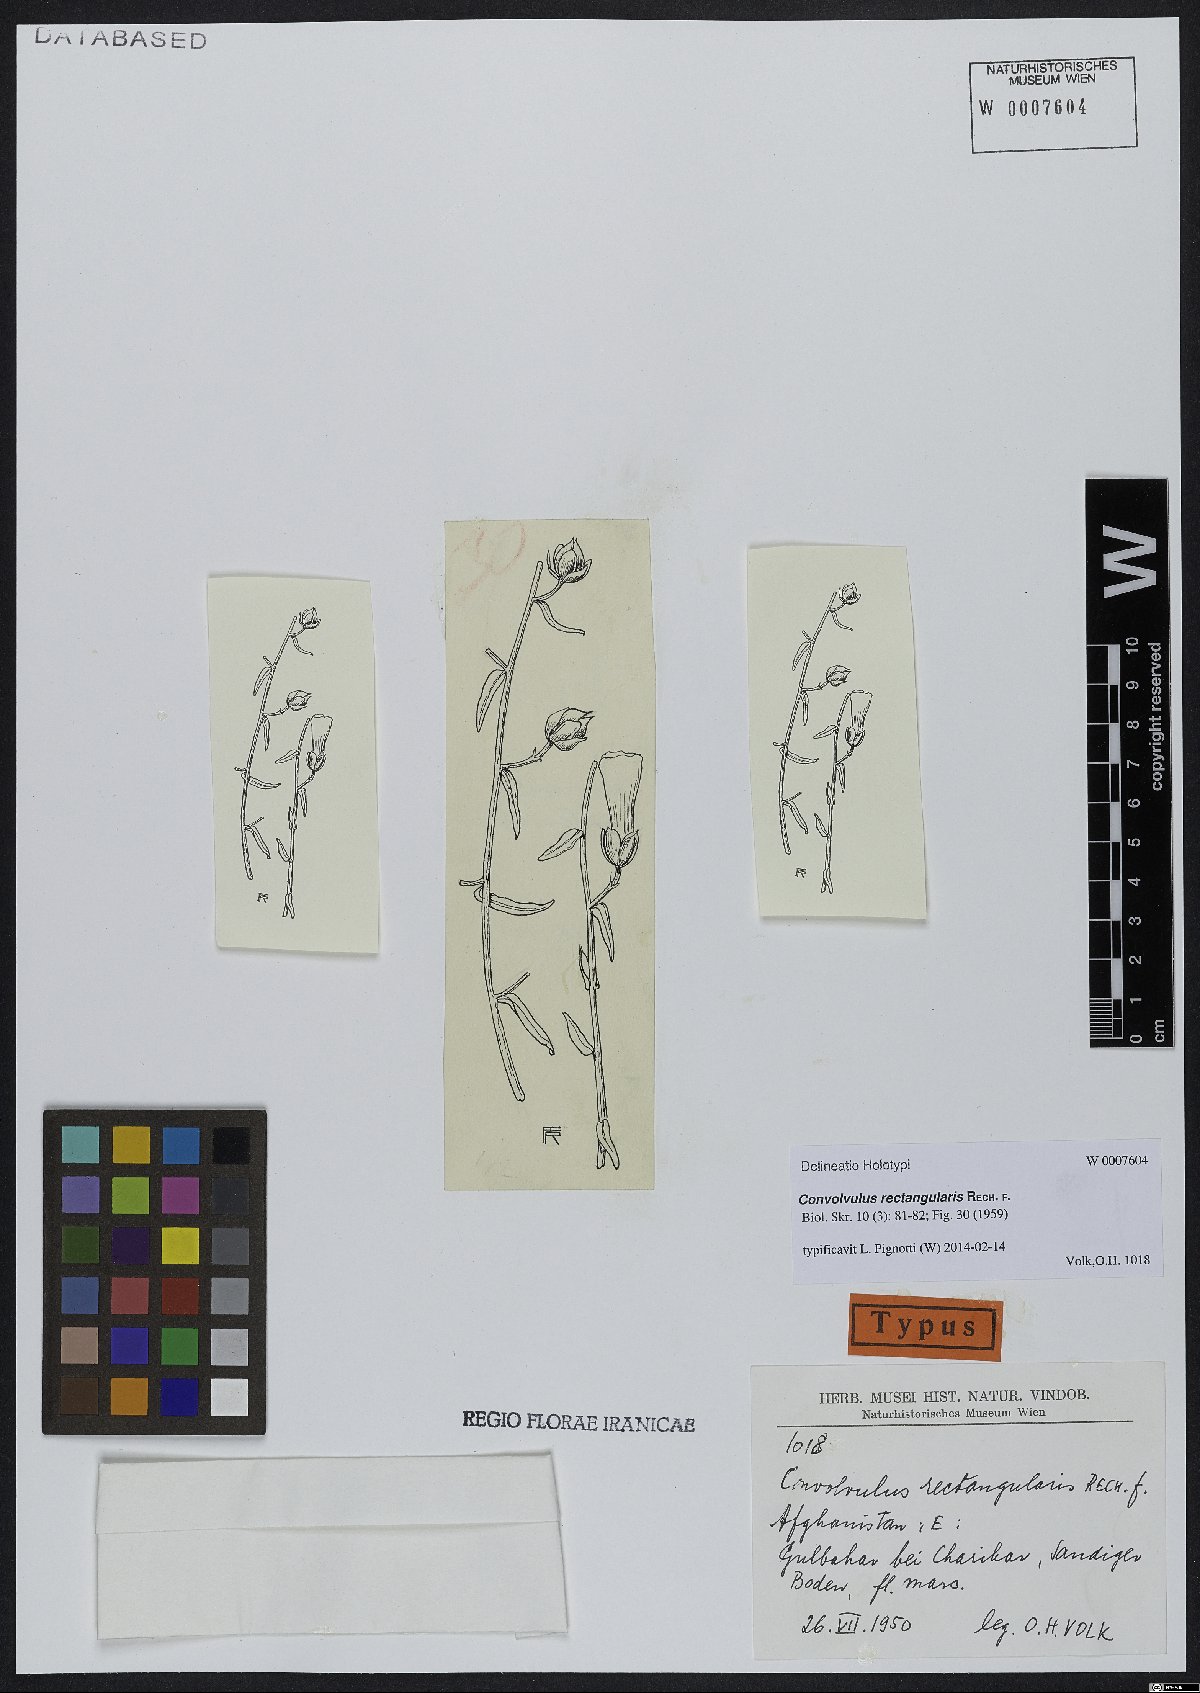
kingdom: Plantae
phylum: Tracheophyta
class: Magnoliopsida
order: Solanales
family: Convolvulaceae
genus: Convolvulus
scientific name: Convolvulus rectangularis
